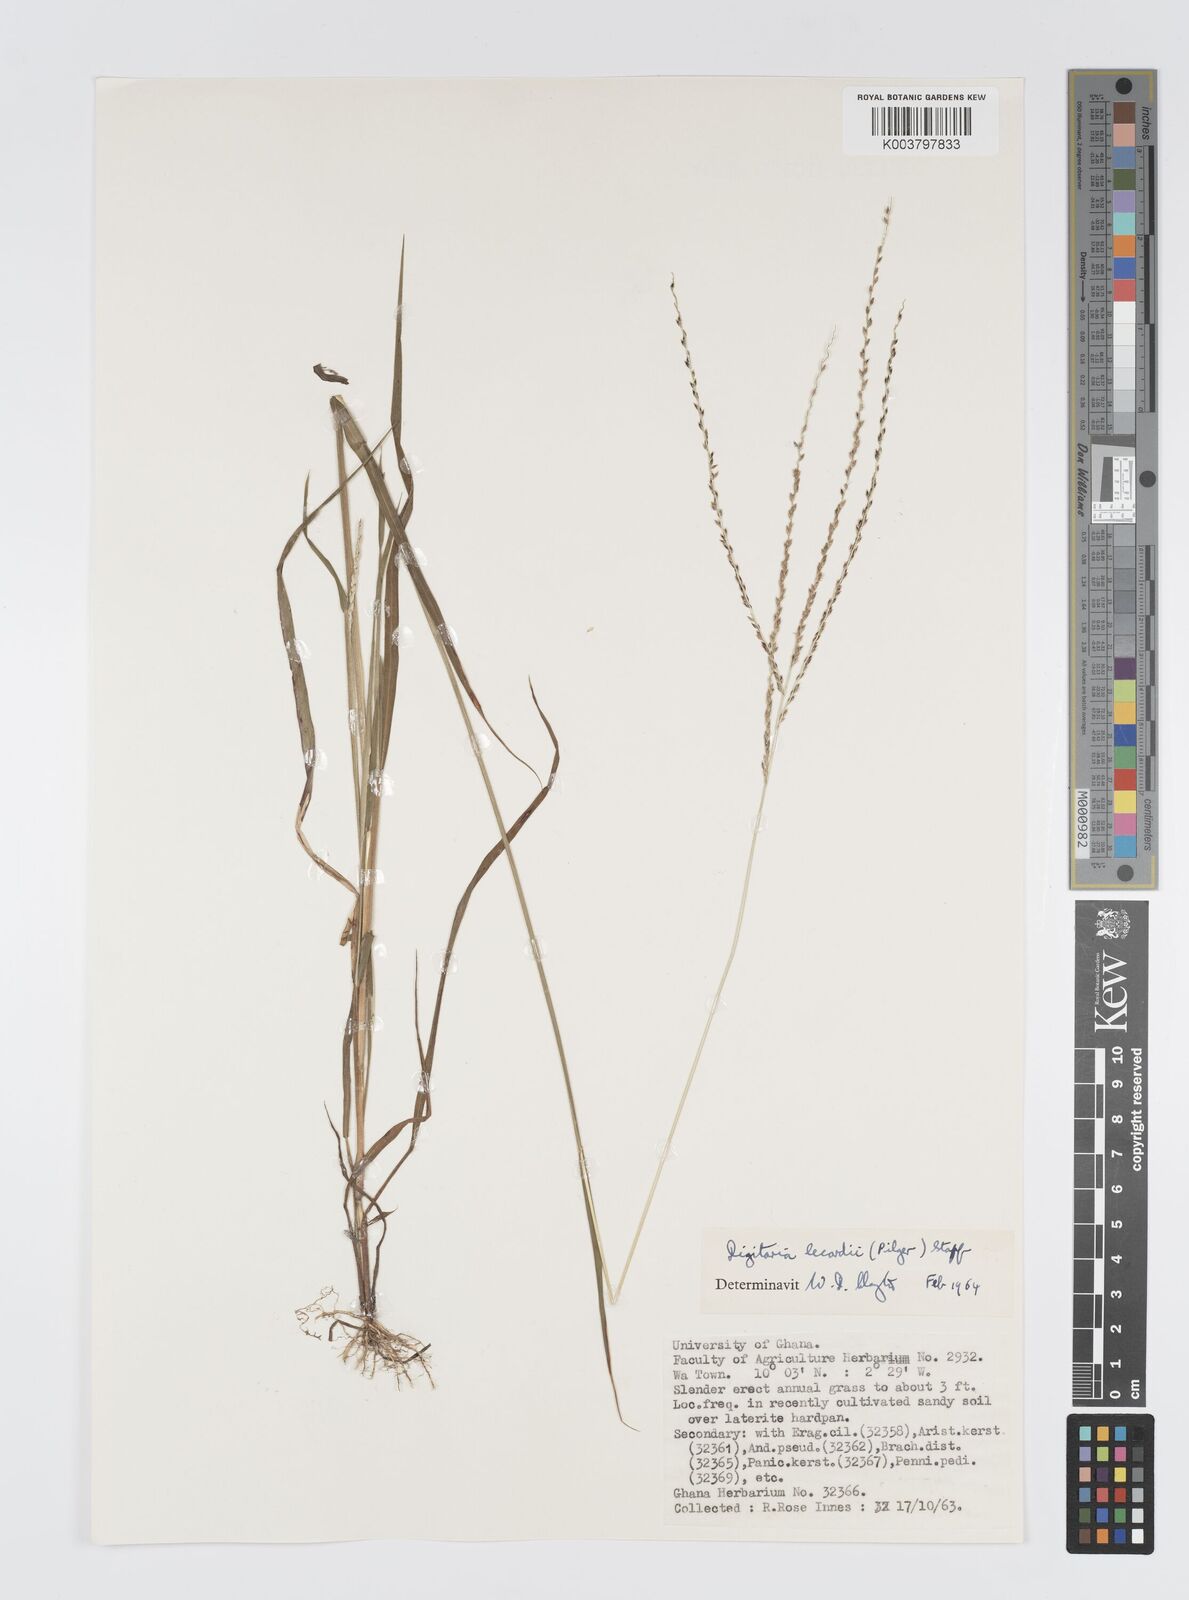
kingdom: Plantae
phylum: Tracheophyta
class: Liliopsida
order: Poales
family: Poaceae
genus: Digitaria
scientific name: Digitaria
